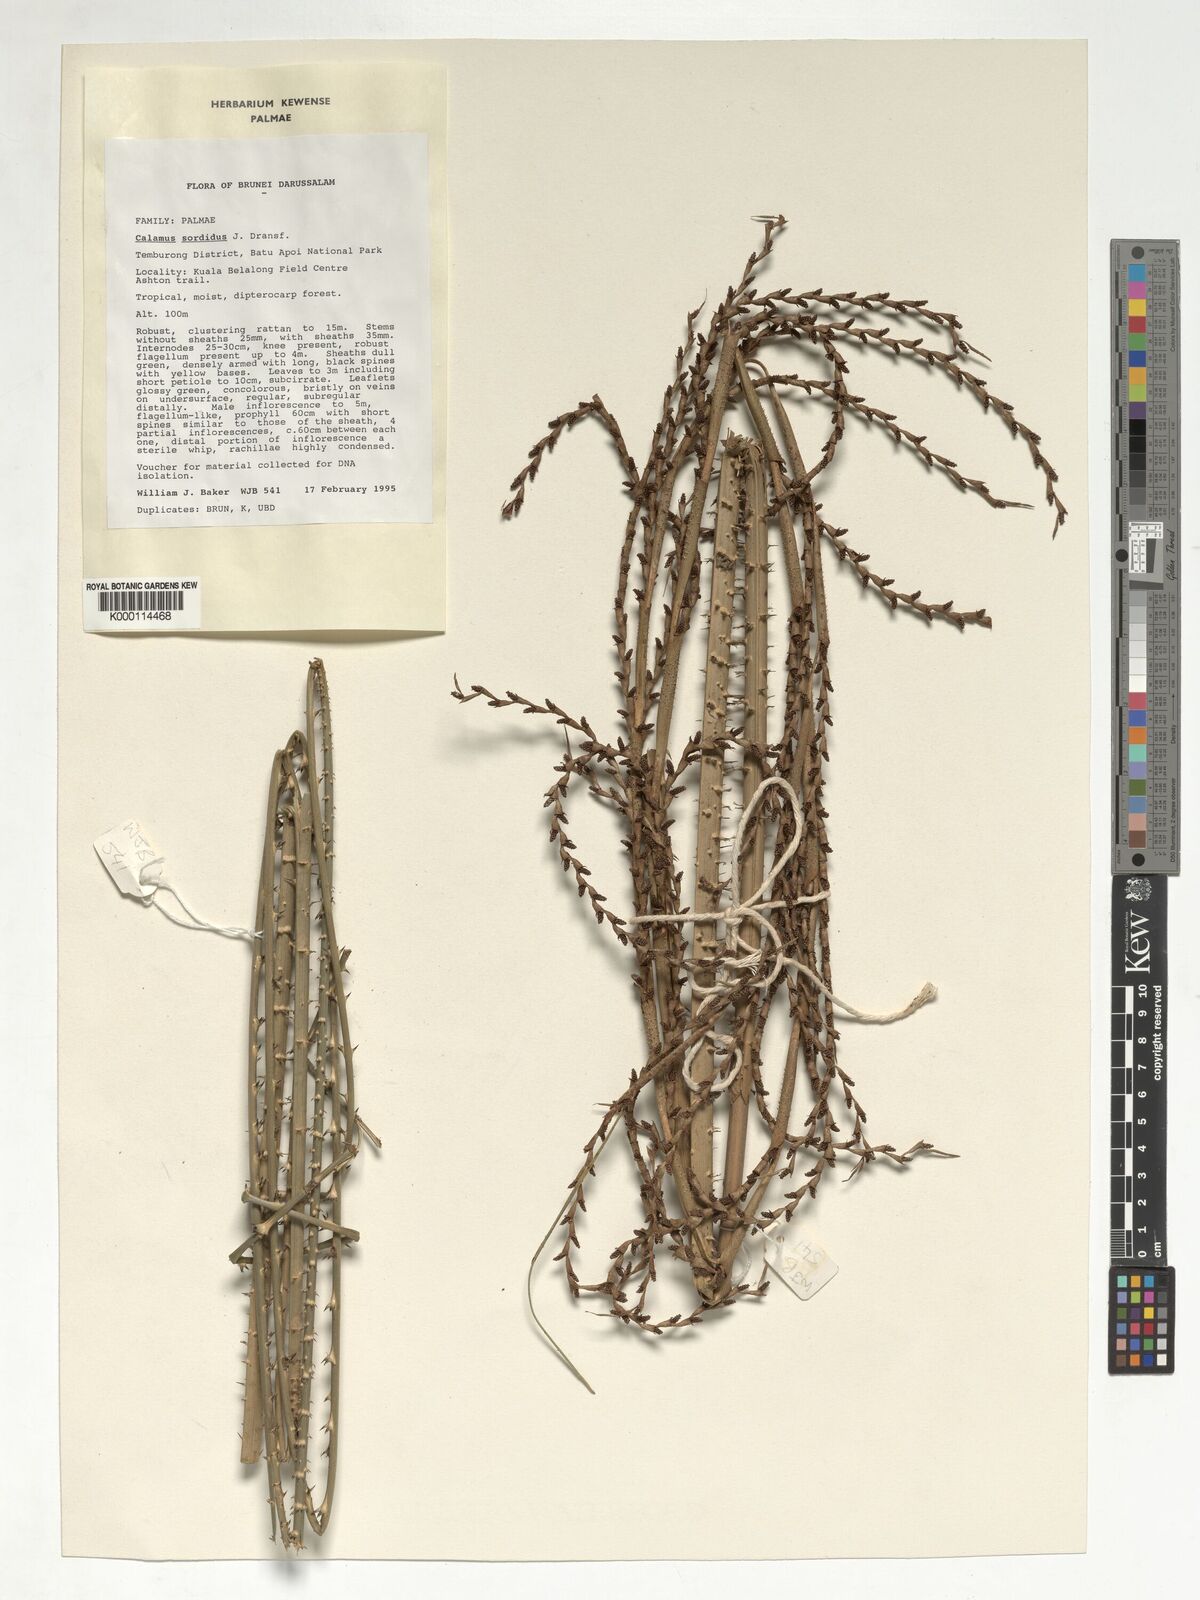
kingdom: Plantae
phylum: Tracheophyta
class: Liliopsida
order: Arecales
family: Arecaceae
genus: Calamus
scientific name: Calamus sordidus
